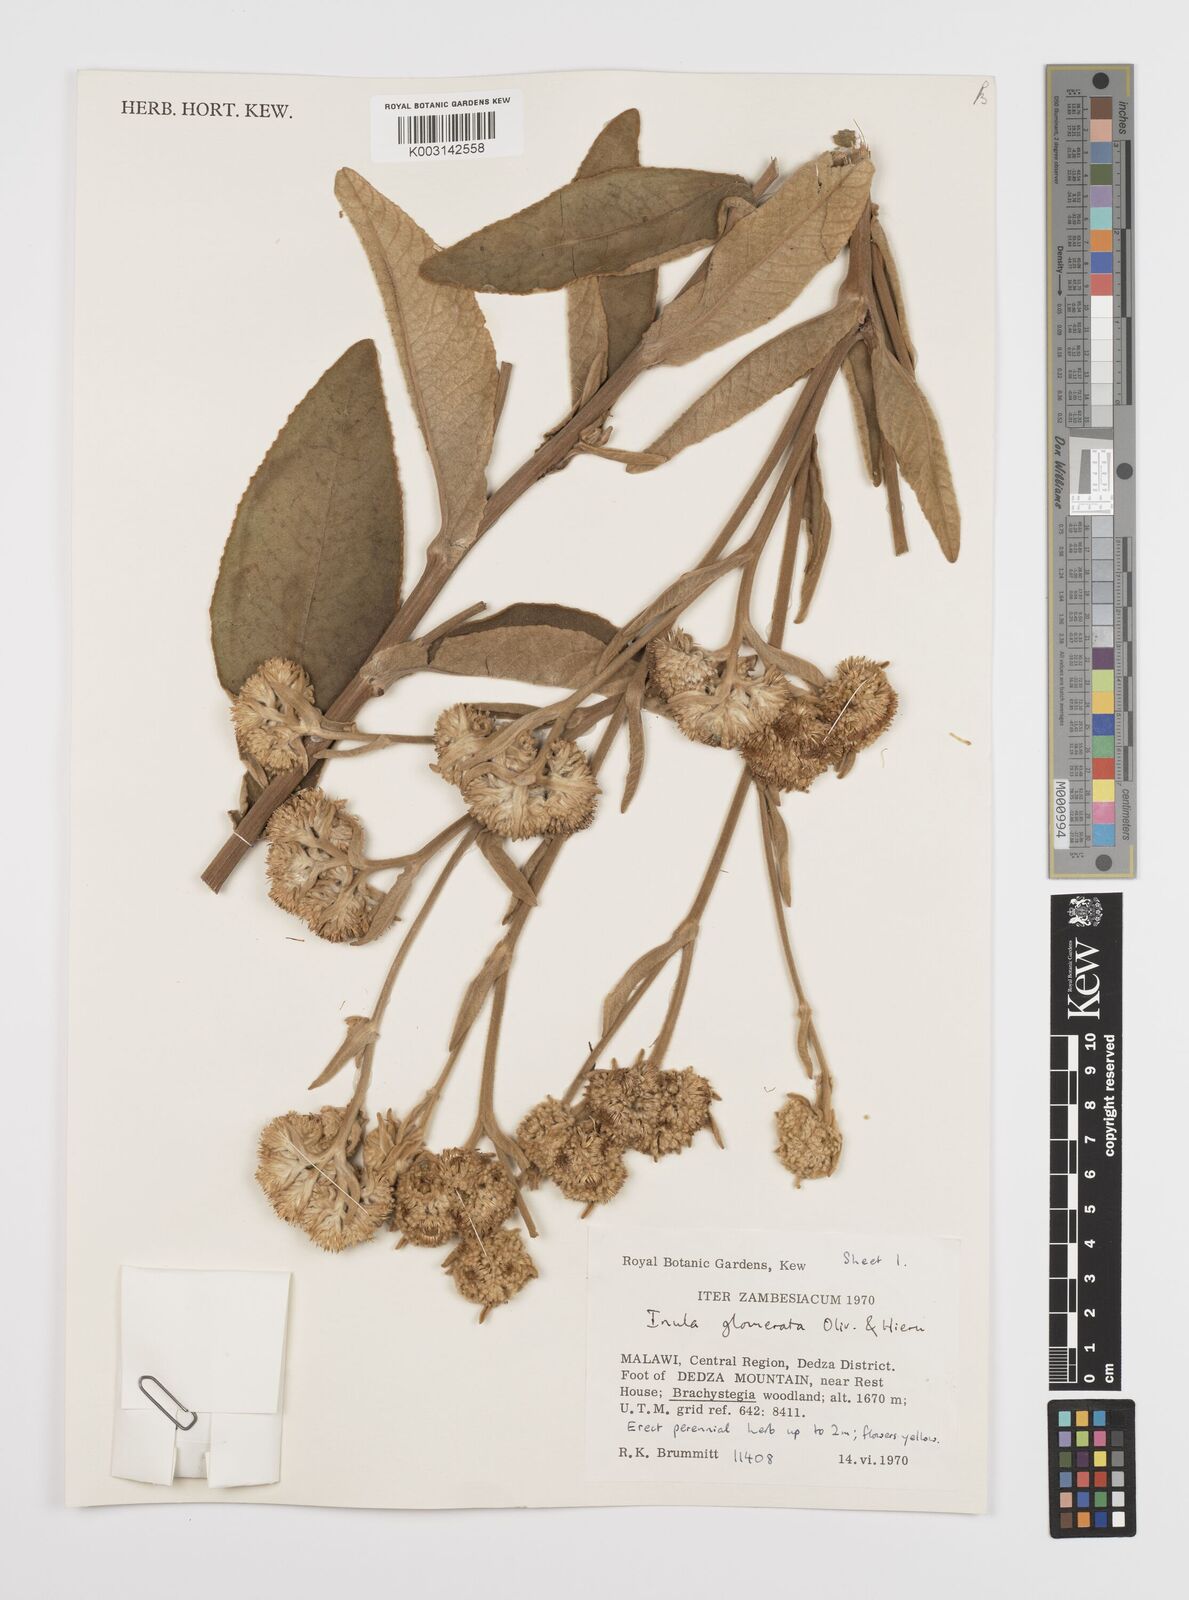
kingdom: Plantae
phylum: Tracheophyta
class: Magnoliopsida
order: Asterales
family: Asteraceae
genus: Inula
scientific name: Inula glomerata
